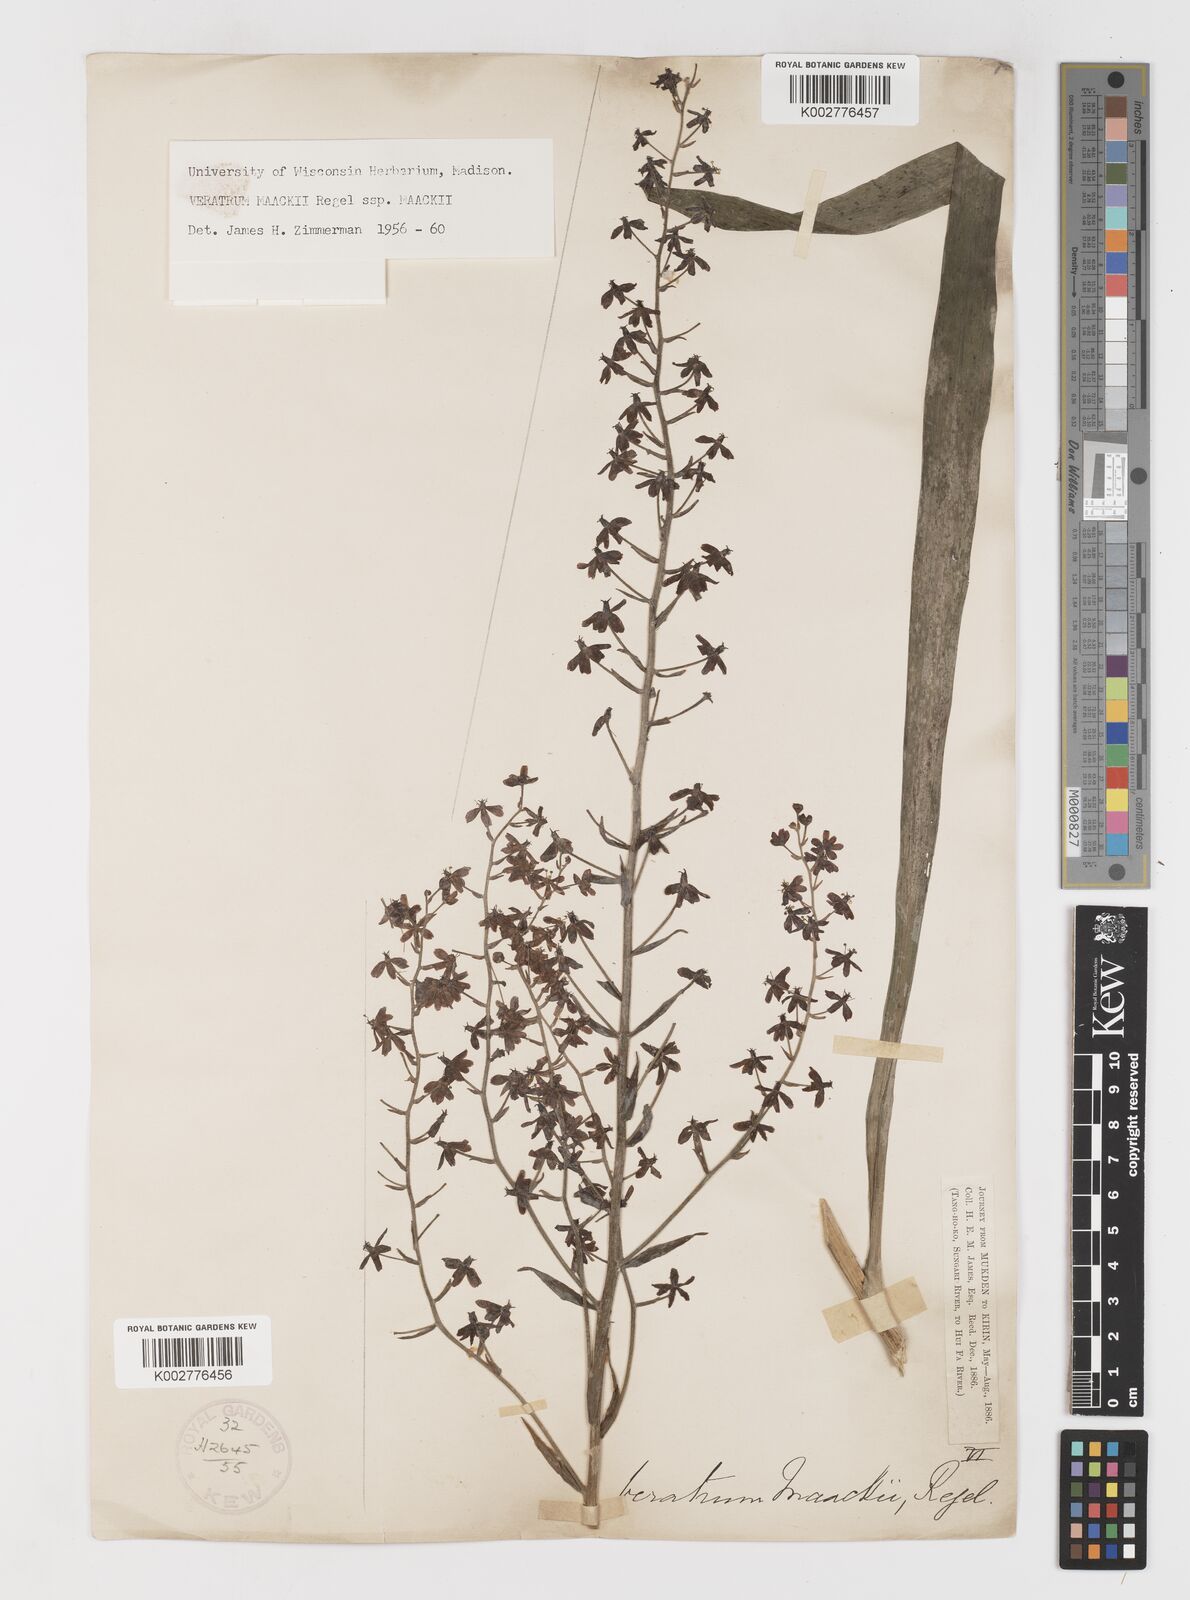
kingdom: Plantae
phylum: Tracheophyta
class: Liliopsida
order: Liliales
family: Melanthiaceae
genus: Veratrum
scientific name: Veratrum maackii
